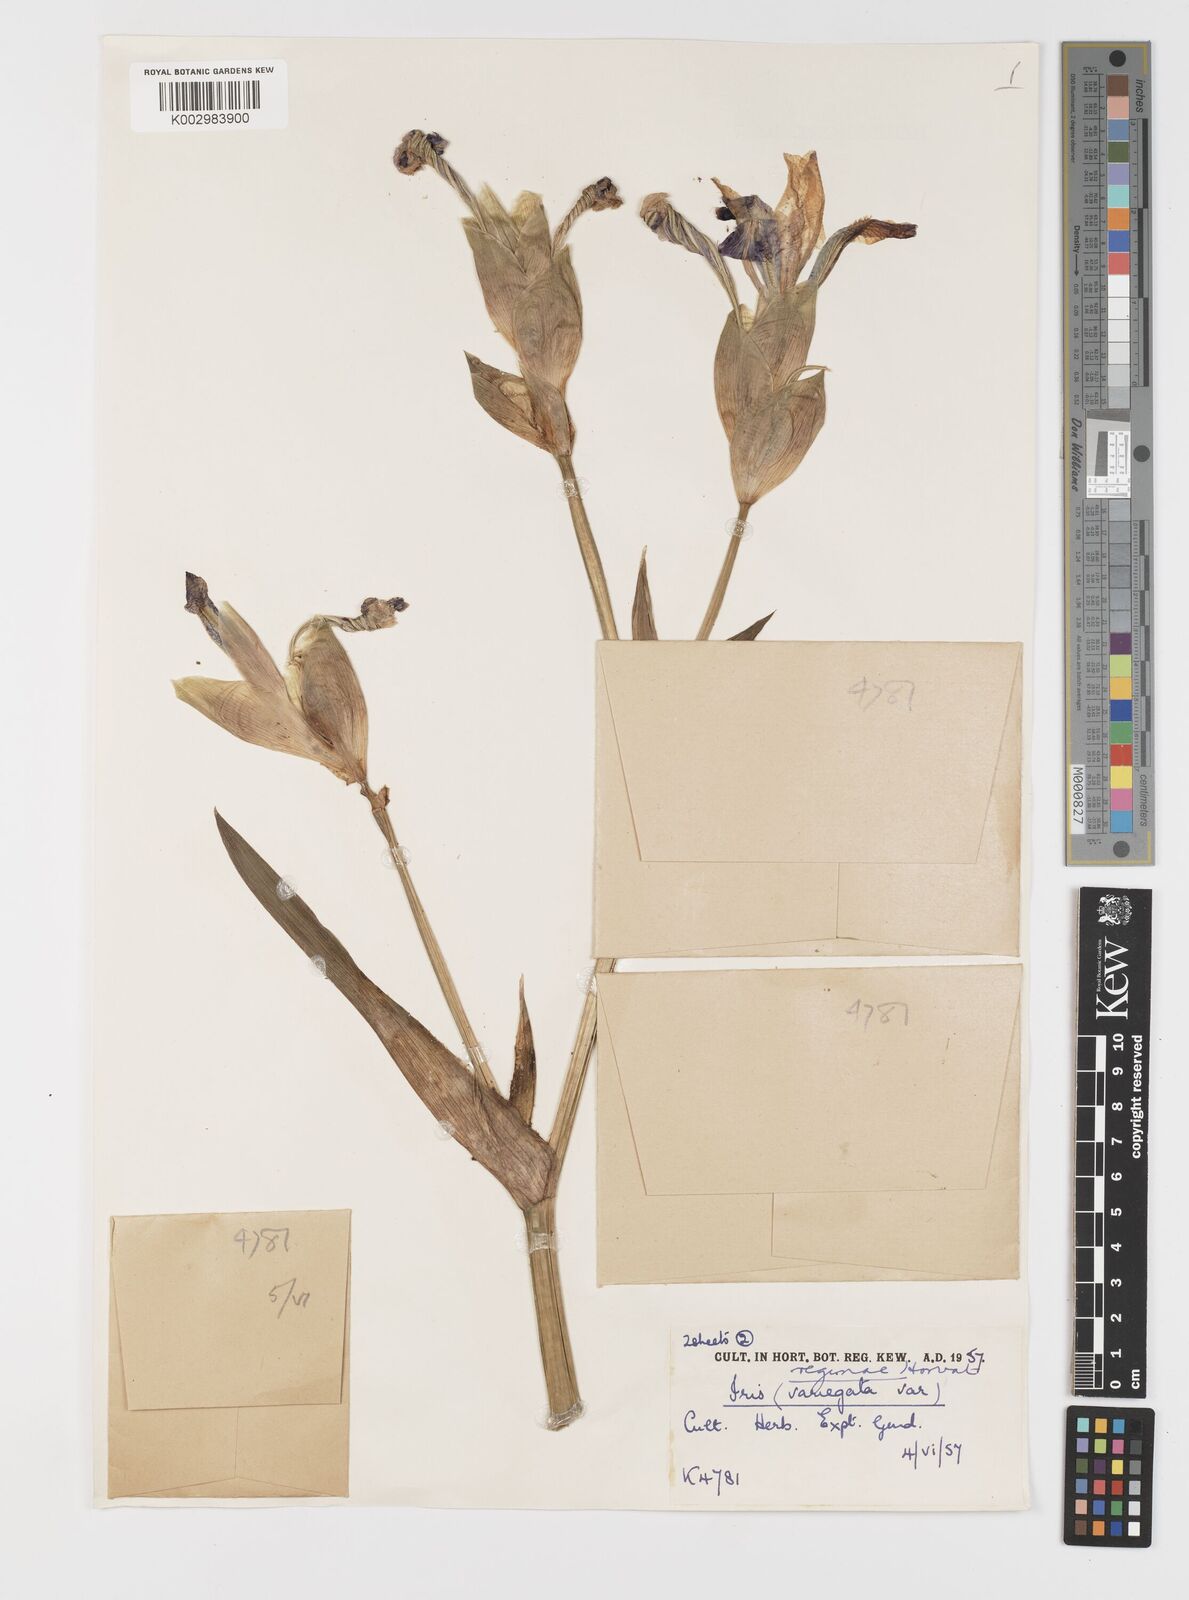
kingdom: Plantae
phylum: Tracheophyta
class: Liliopsida
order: Asparagales
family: Iridaceae
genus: Iris
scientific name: Iris variegata
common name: Hungarian iris
